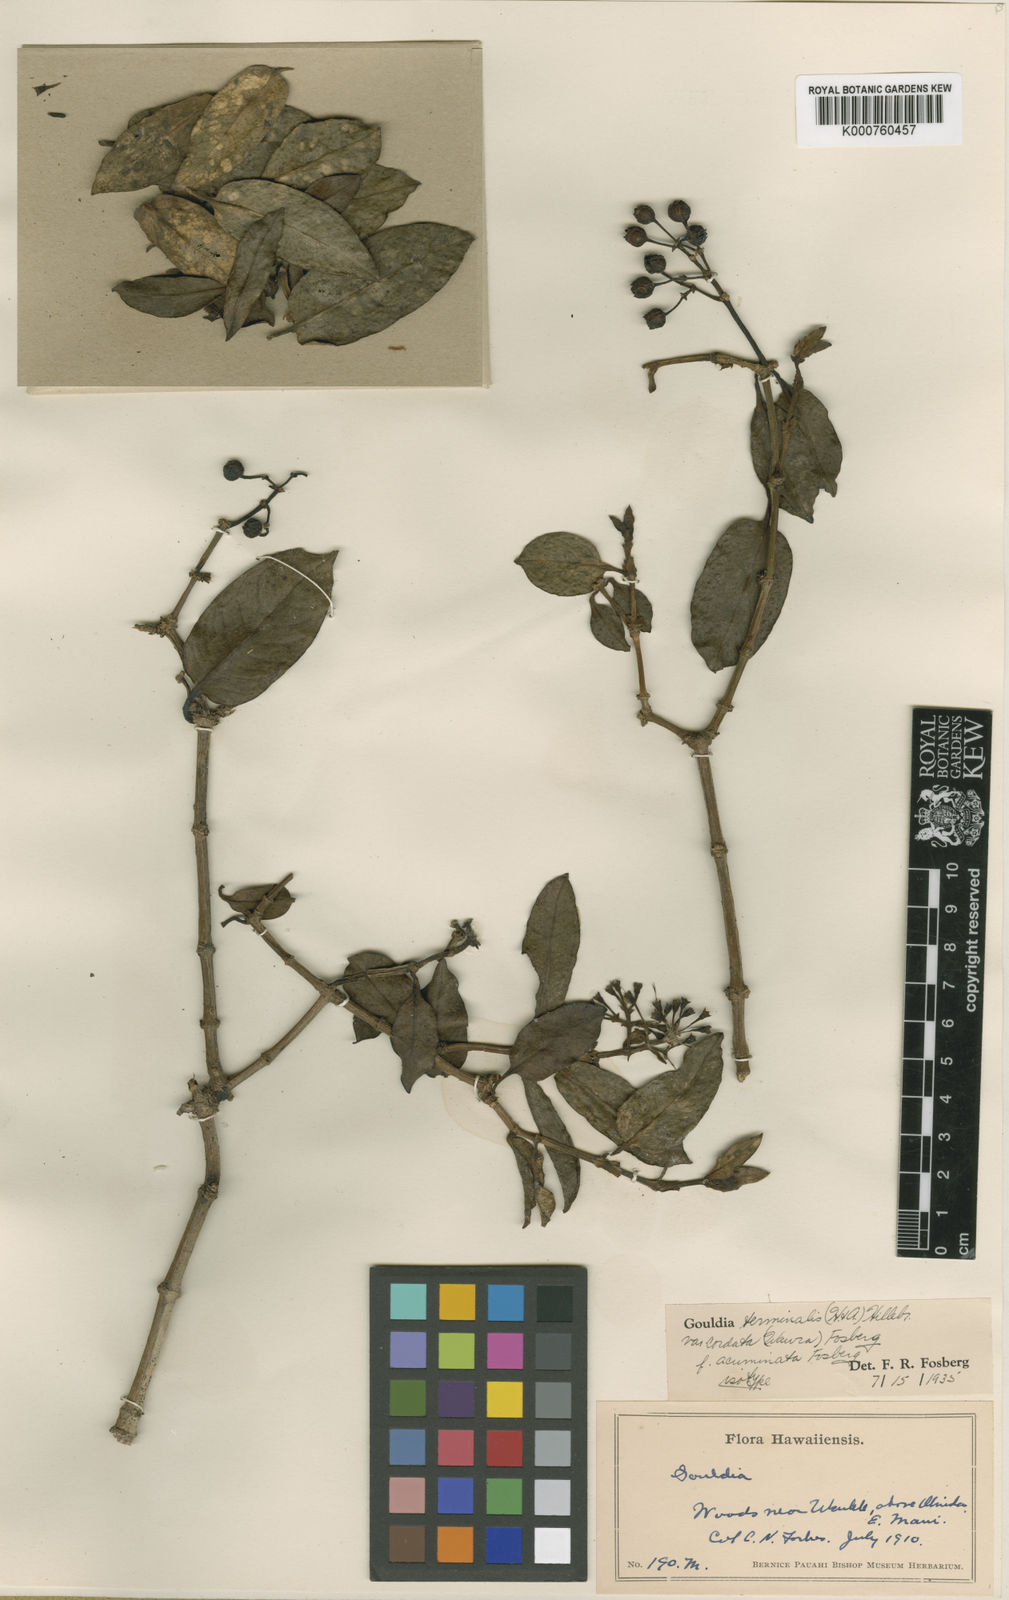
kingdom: Plantae
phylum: Tracheophyta
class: Magnoliopsida
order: Gentianales
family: Rubiaceae
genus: Kadua
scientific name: Kadua affinis
